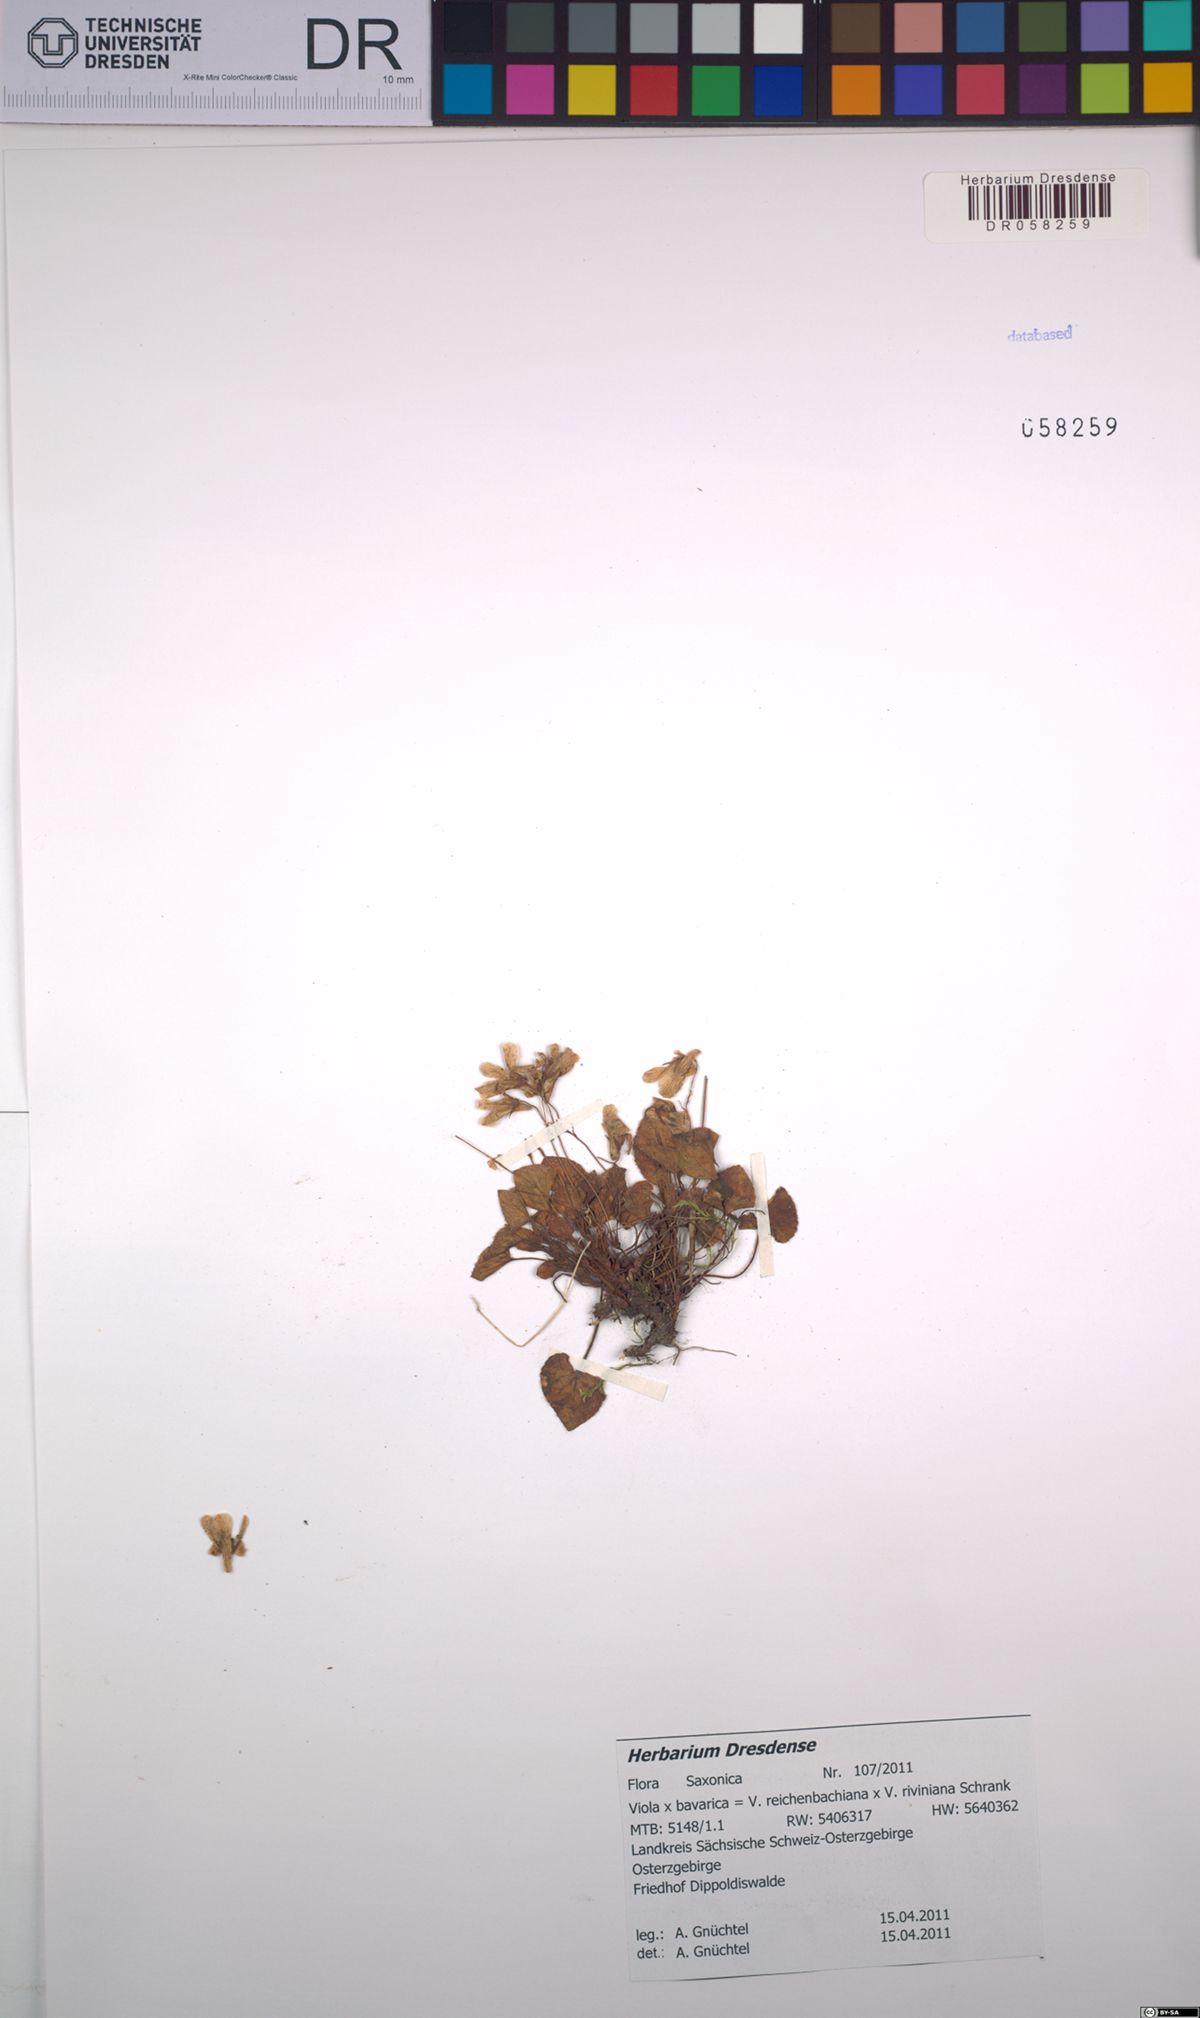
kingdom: Plantae
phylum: Tracheophyta
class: Magnoliopsida
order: Malpighiales
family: Violaceae
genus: Viola
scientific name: Viola bavarica
